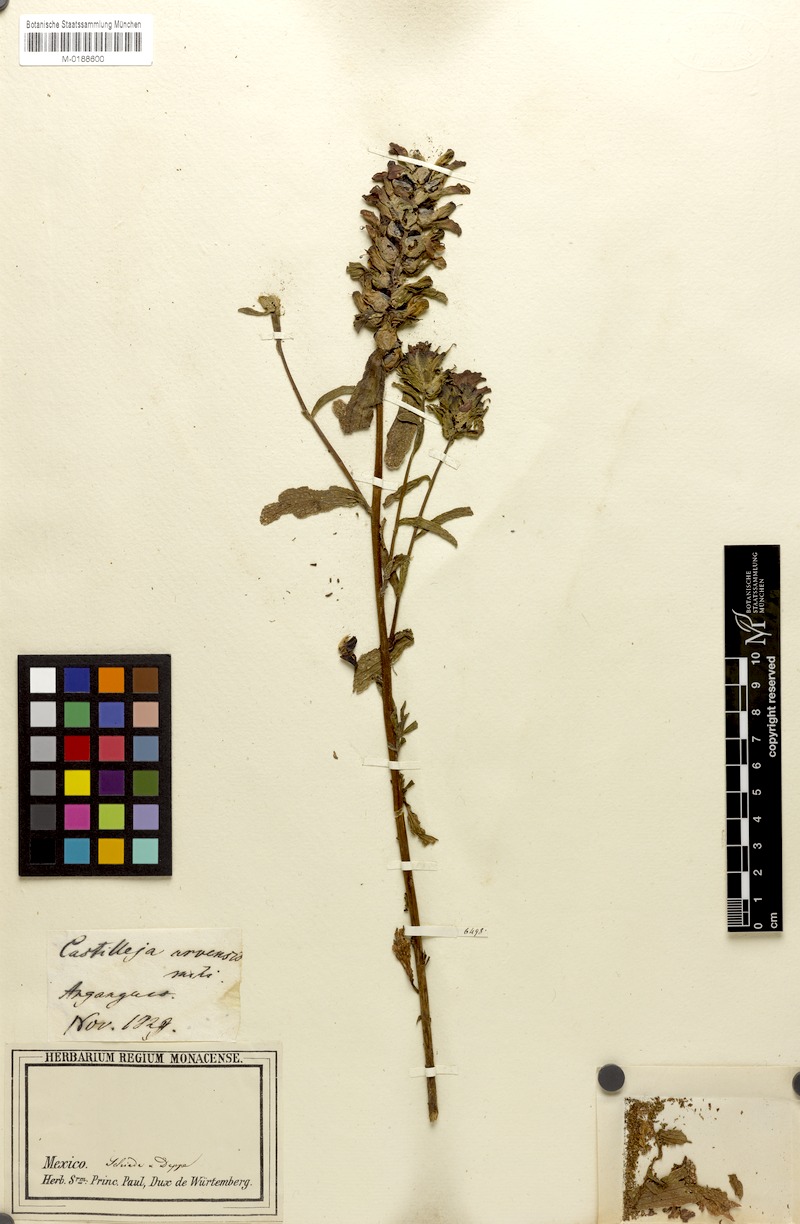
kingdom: Plantae
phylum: Tracheophyta
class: Magnoliopsida
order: Lamiales
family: Orobanchaceae
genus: Castilleja
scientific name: Castilleja scorzonerifolia
